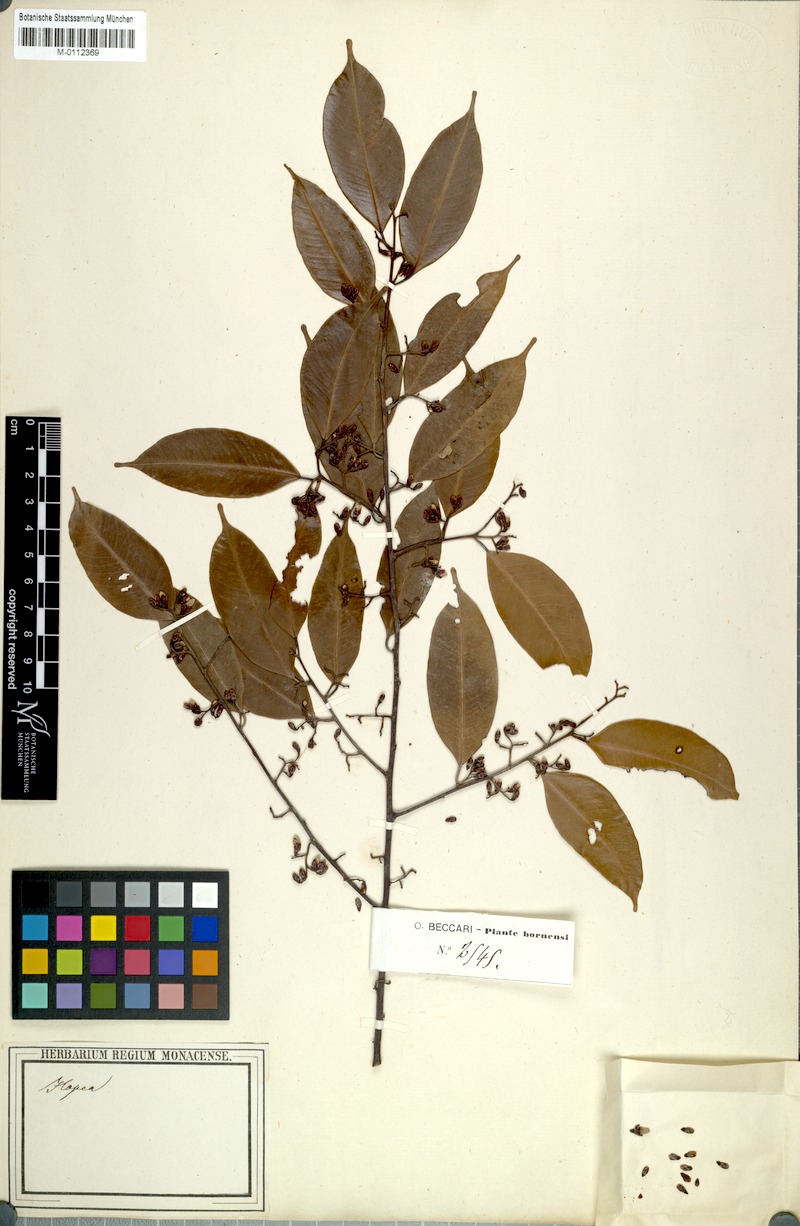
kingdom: Plantae
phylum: Tracheophyta
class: Magnoliopsida
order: Malvales
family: Dipterocarpaceae
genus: Hopea
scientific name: Hopea cernua
